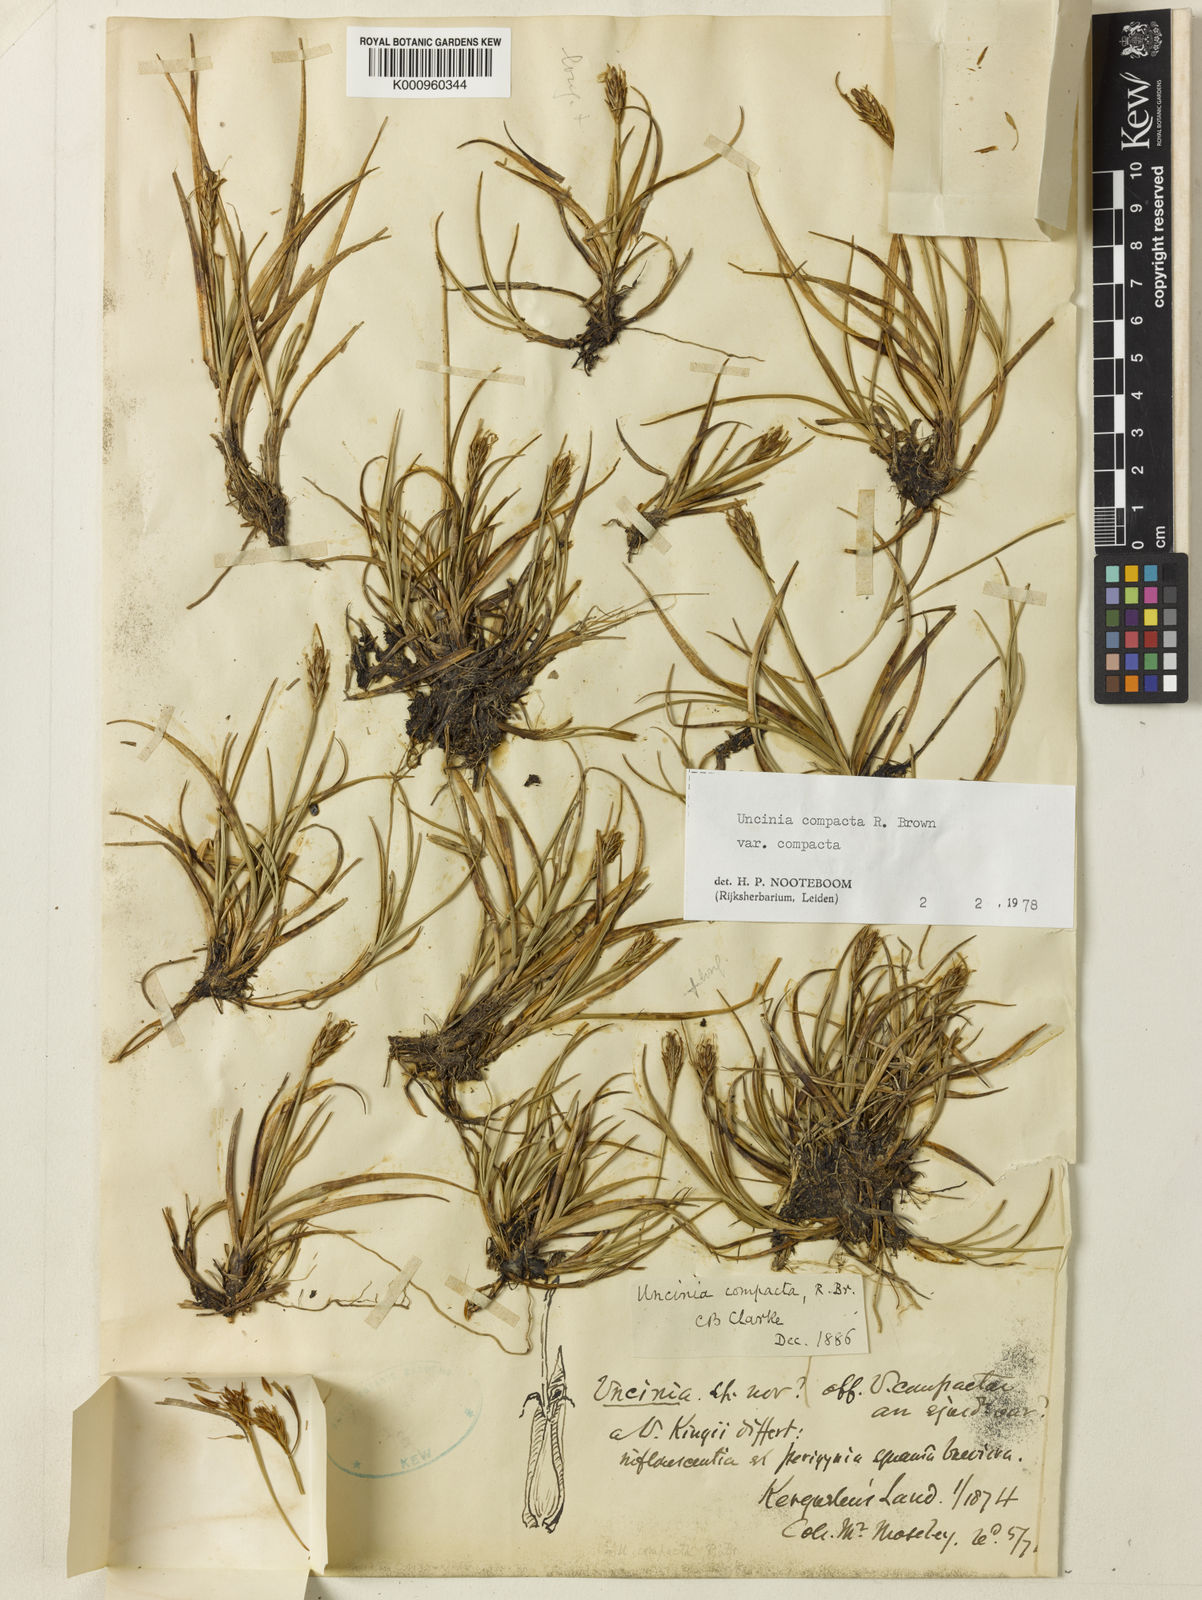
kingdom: Plantae
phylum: Tracheophyta
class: Liliopsida
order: Poales
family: Cyperaceae
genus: Carex
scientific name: Carex austrocompacta
